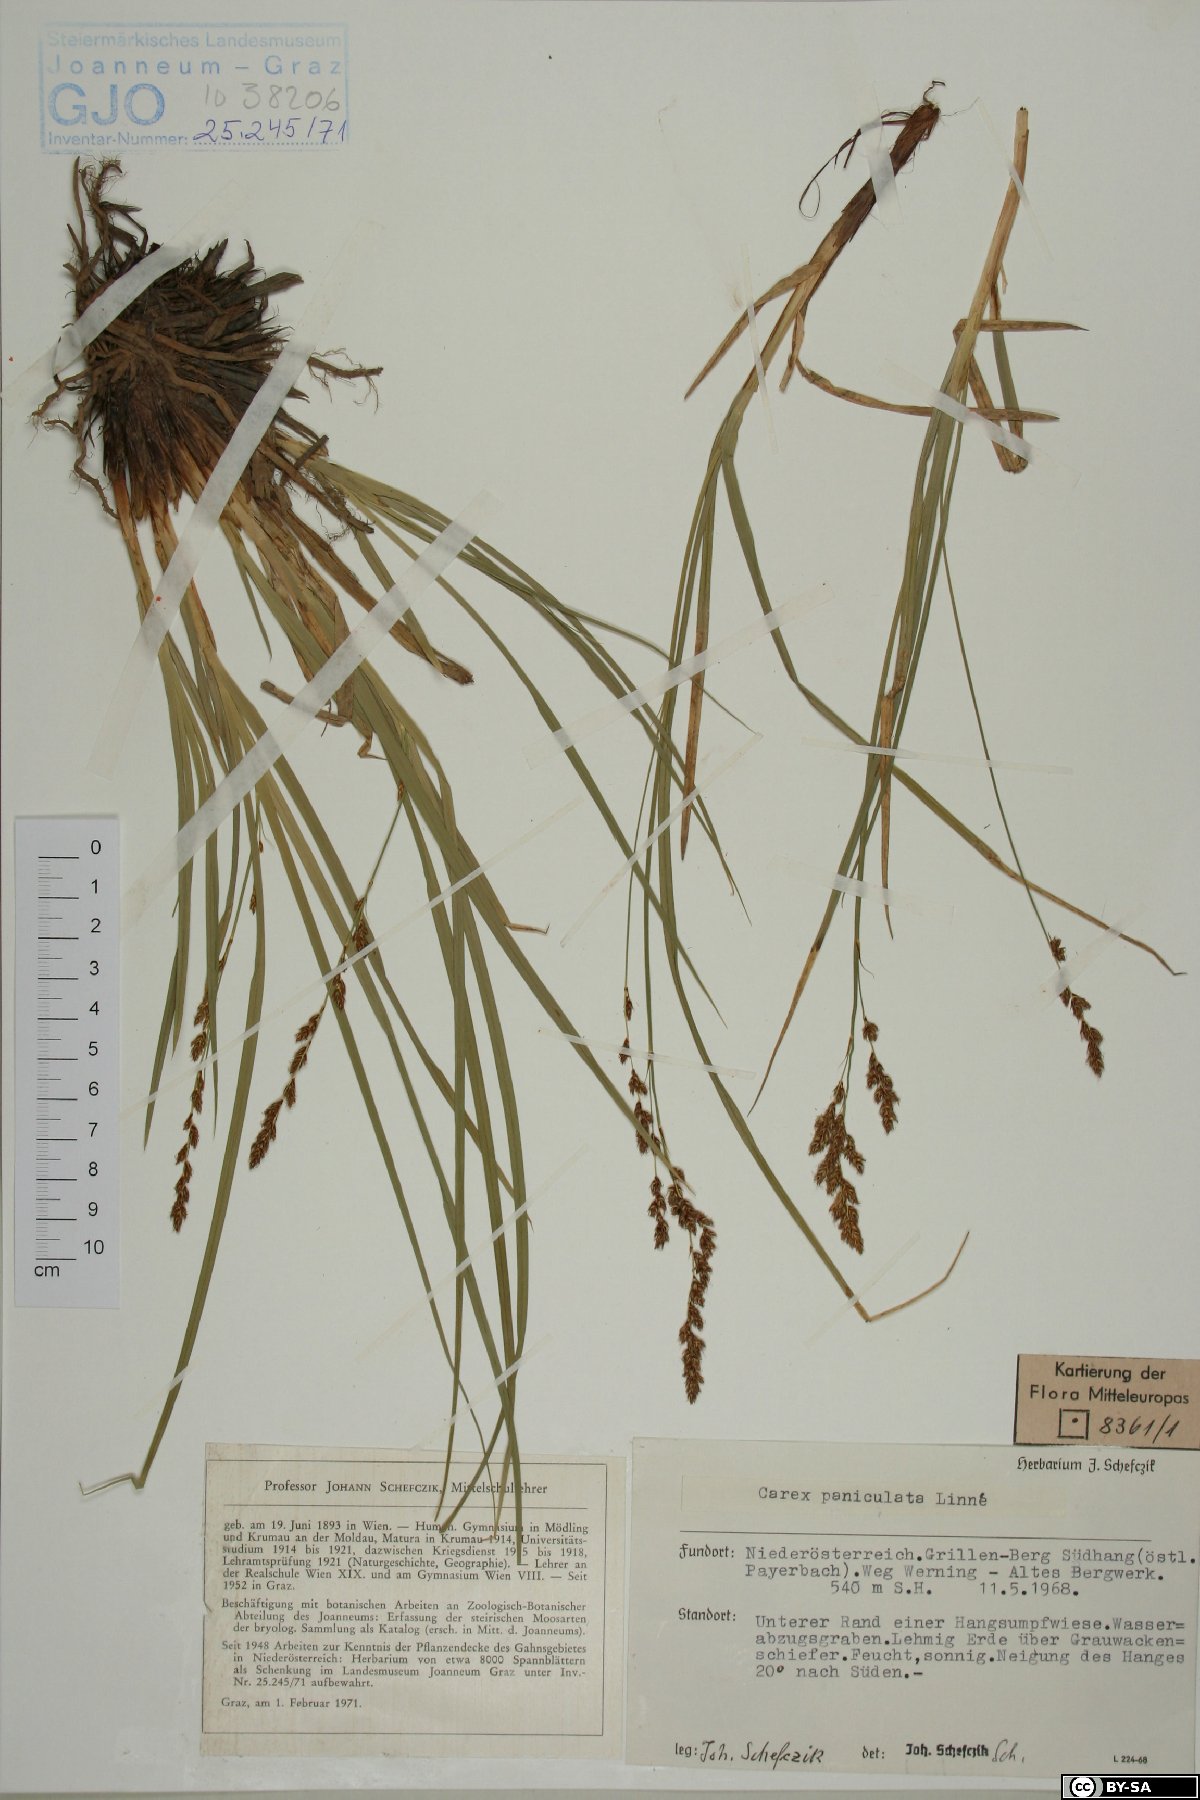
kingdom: Plantae
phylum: Tracheophyta
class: Liliopsida
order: Poales
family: Cyperaceae
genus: Carex
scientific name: Carex paniculata
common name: Greater tussock-sedge
